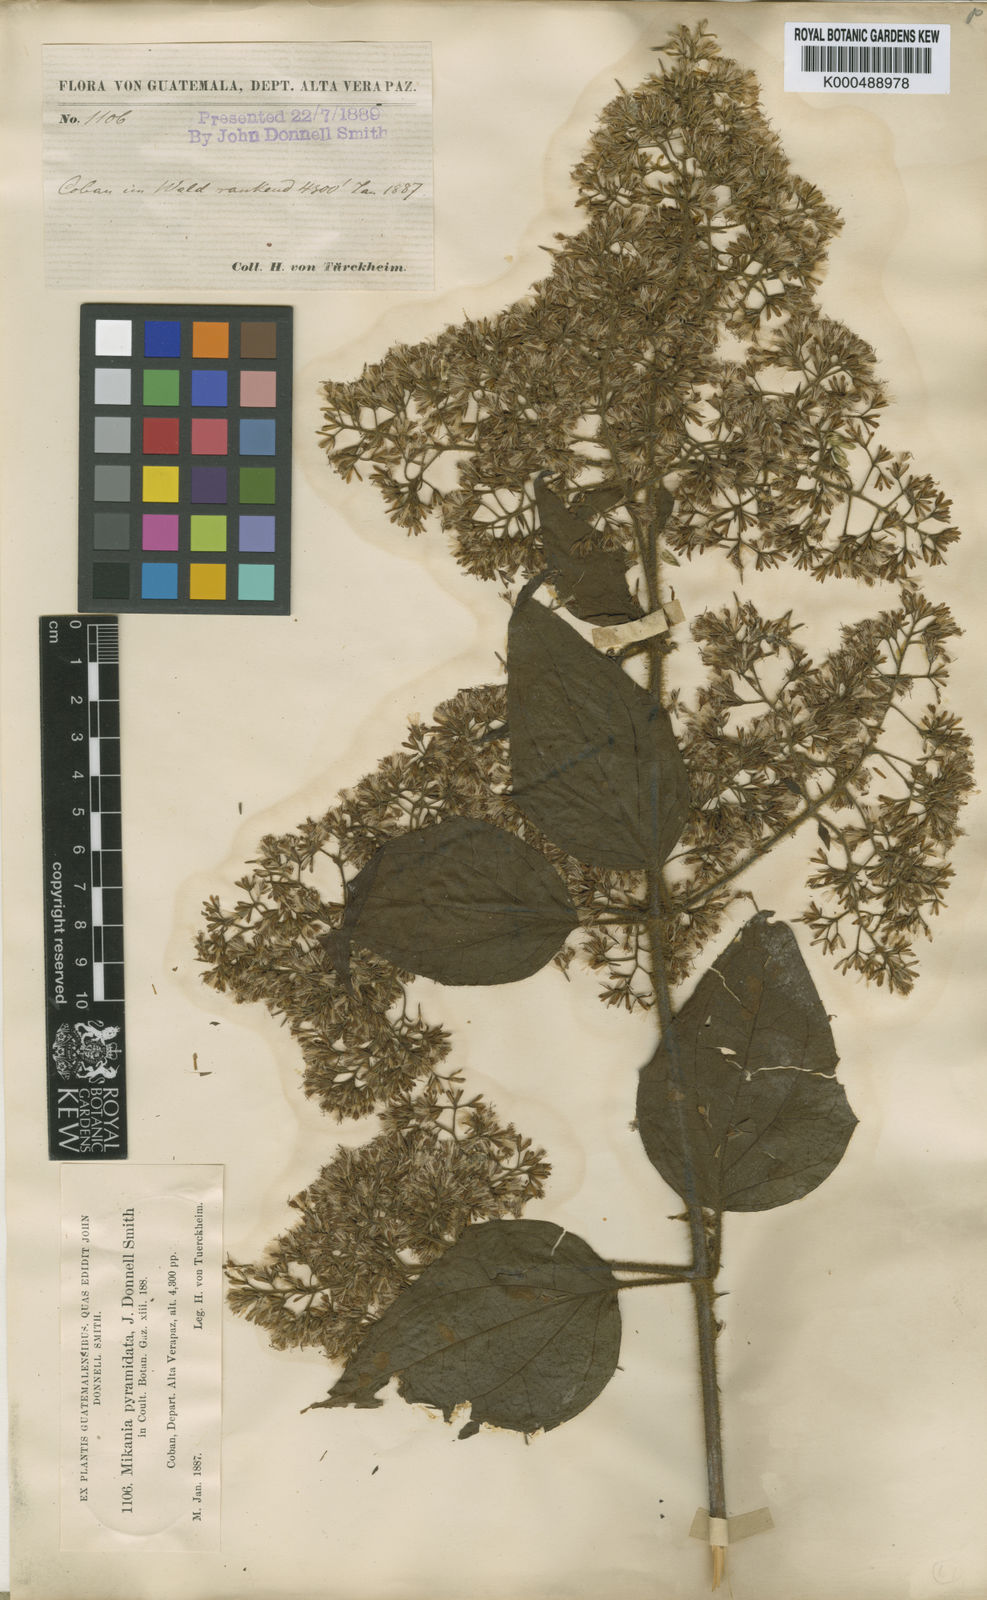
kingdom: Plantae
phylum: Tracheophyta
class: Magnoliopsida
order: Asterales
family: Asteraceae
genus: Mikania
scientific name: Mikania pyramidata
